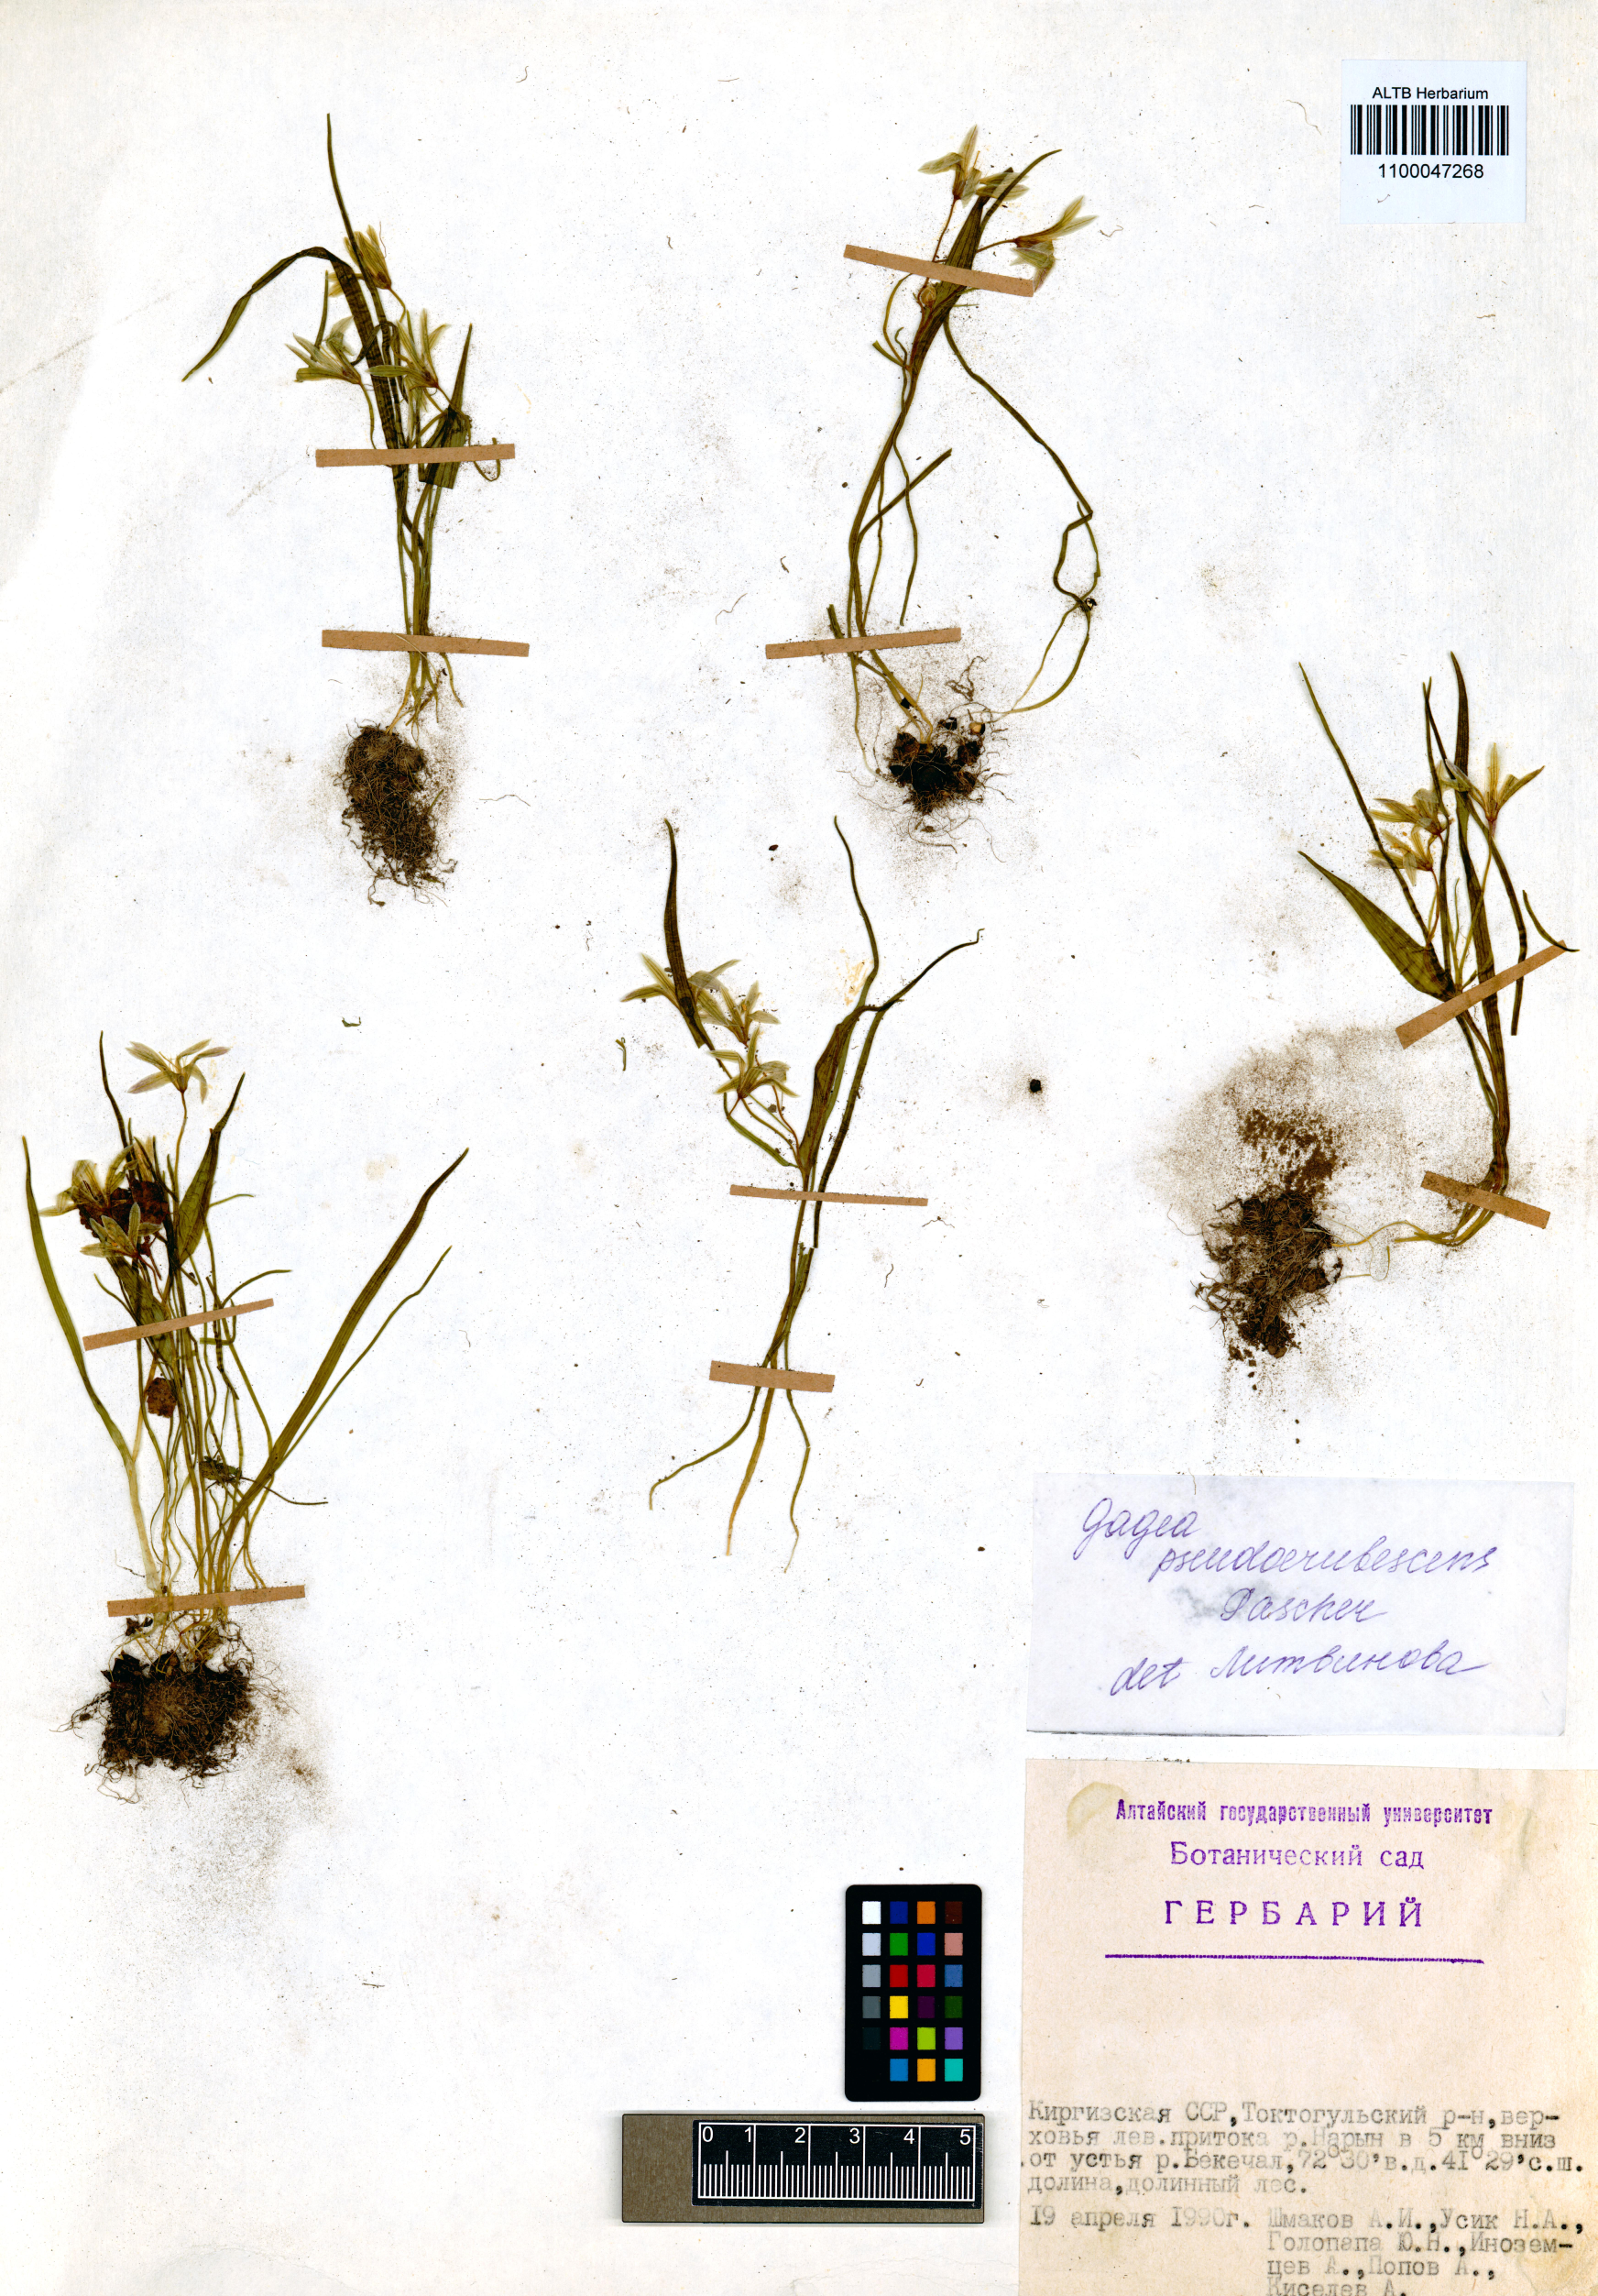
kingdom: Plantae
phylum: Tracheophyta
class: Liliopsida
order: Liliales
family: Liliaceae
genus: Gagea
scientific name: Gagea filiformis
